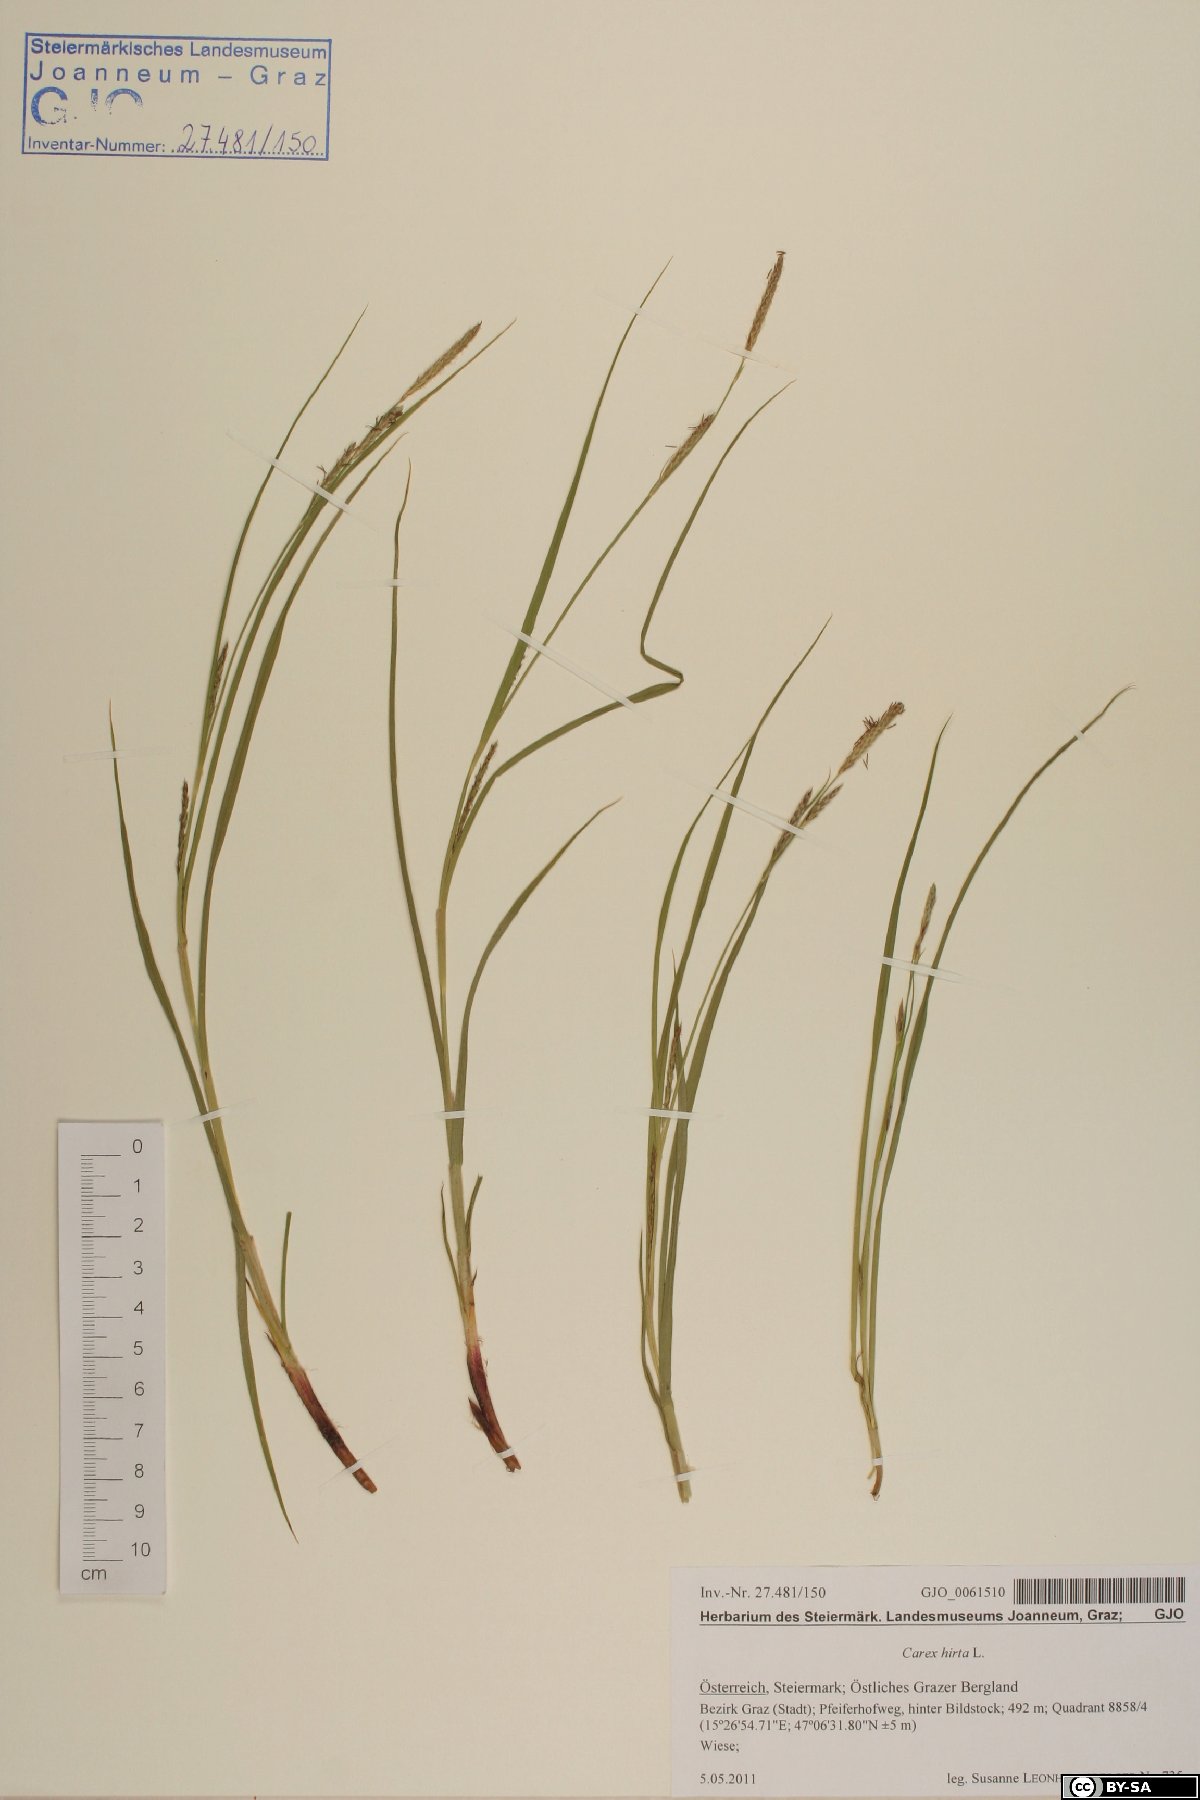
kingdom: Plantae
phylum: Tracheophyta
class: Liliopsida
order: Poales
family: Cyperaceae
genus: Carex
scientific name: Carex hirta
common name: Hairy sedge
